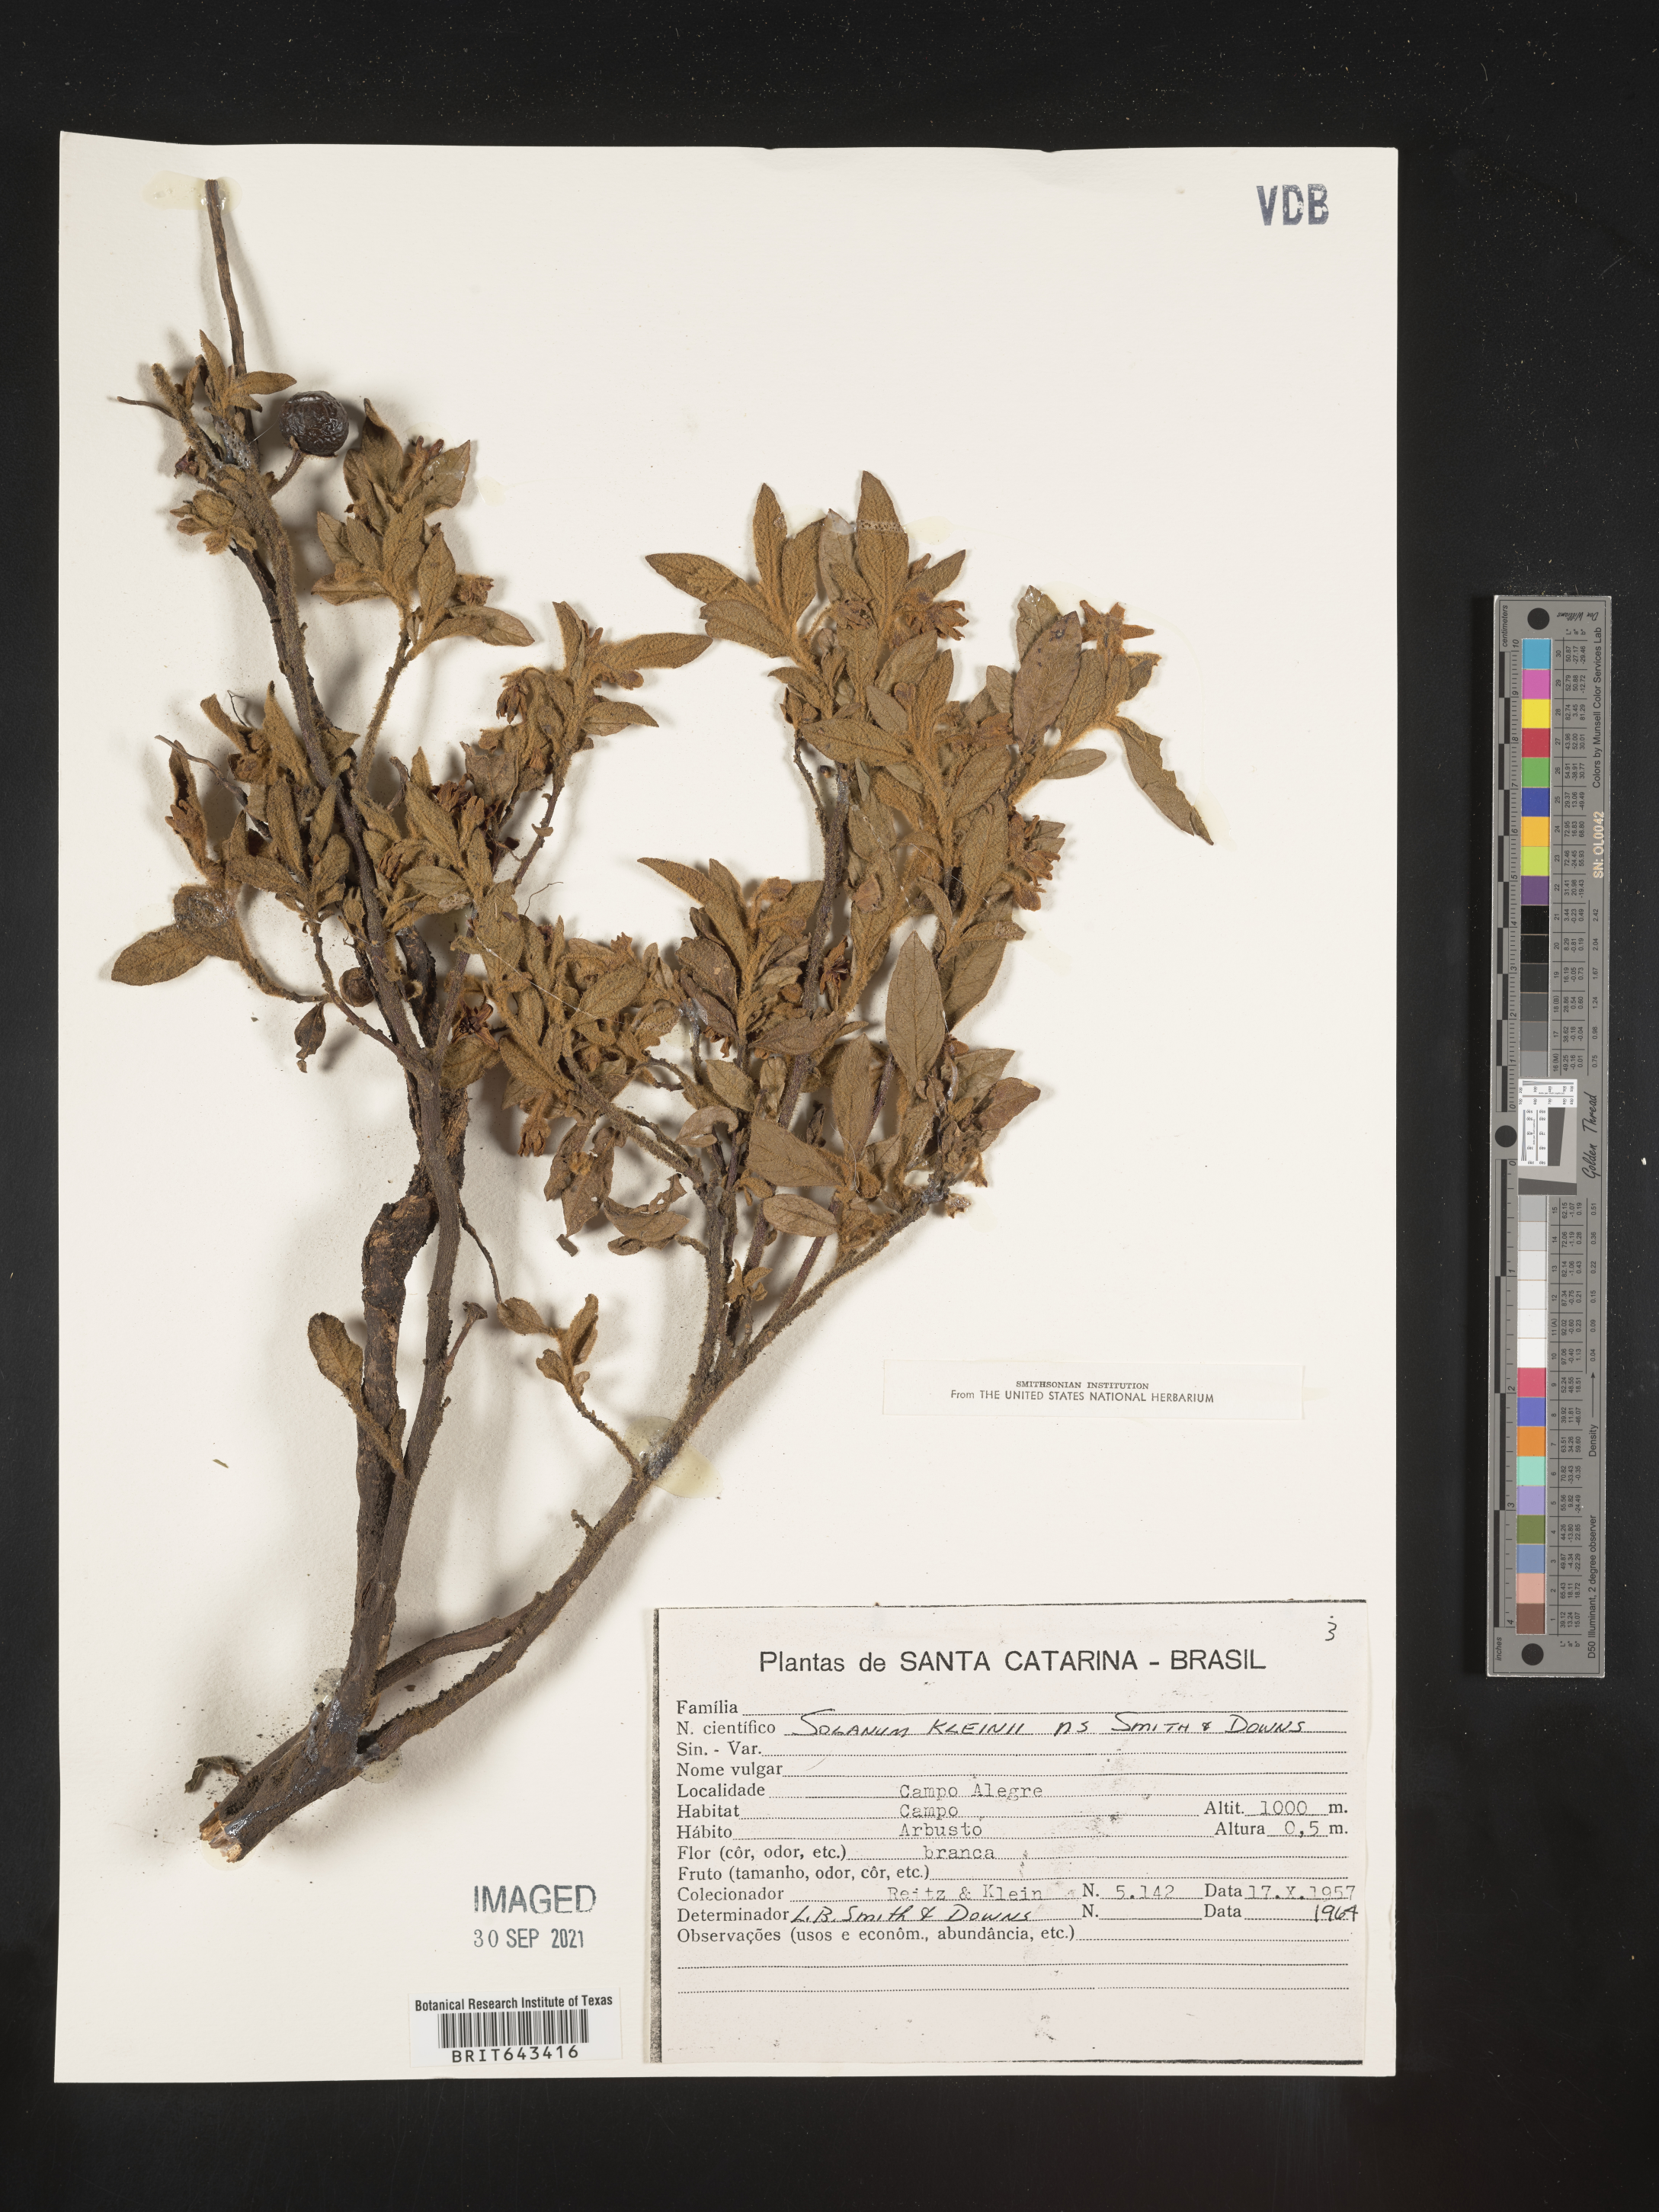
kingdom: Plantae
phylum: Tracheophyta
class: Magnoliopsida
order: Solanales
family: Solanaceae
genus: Solanum
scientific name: Solanum
